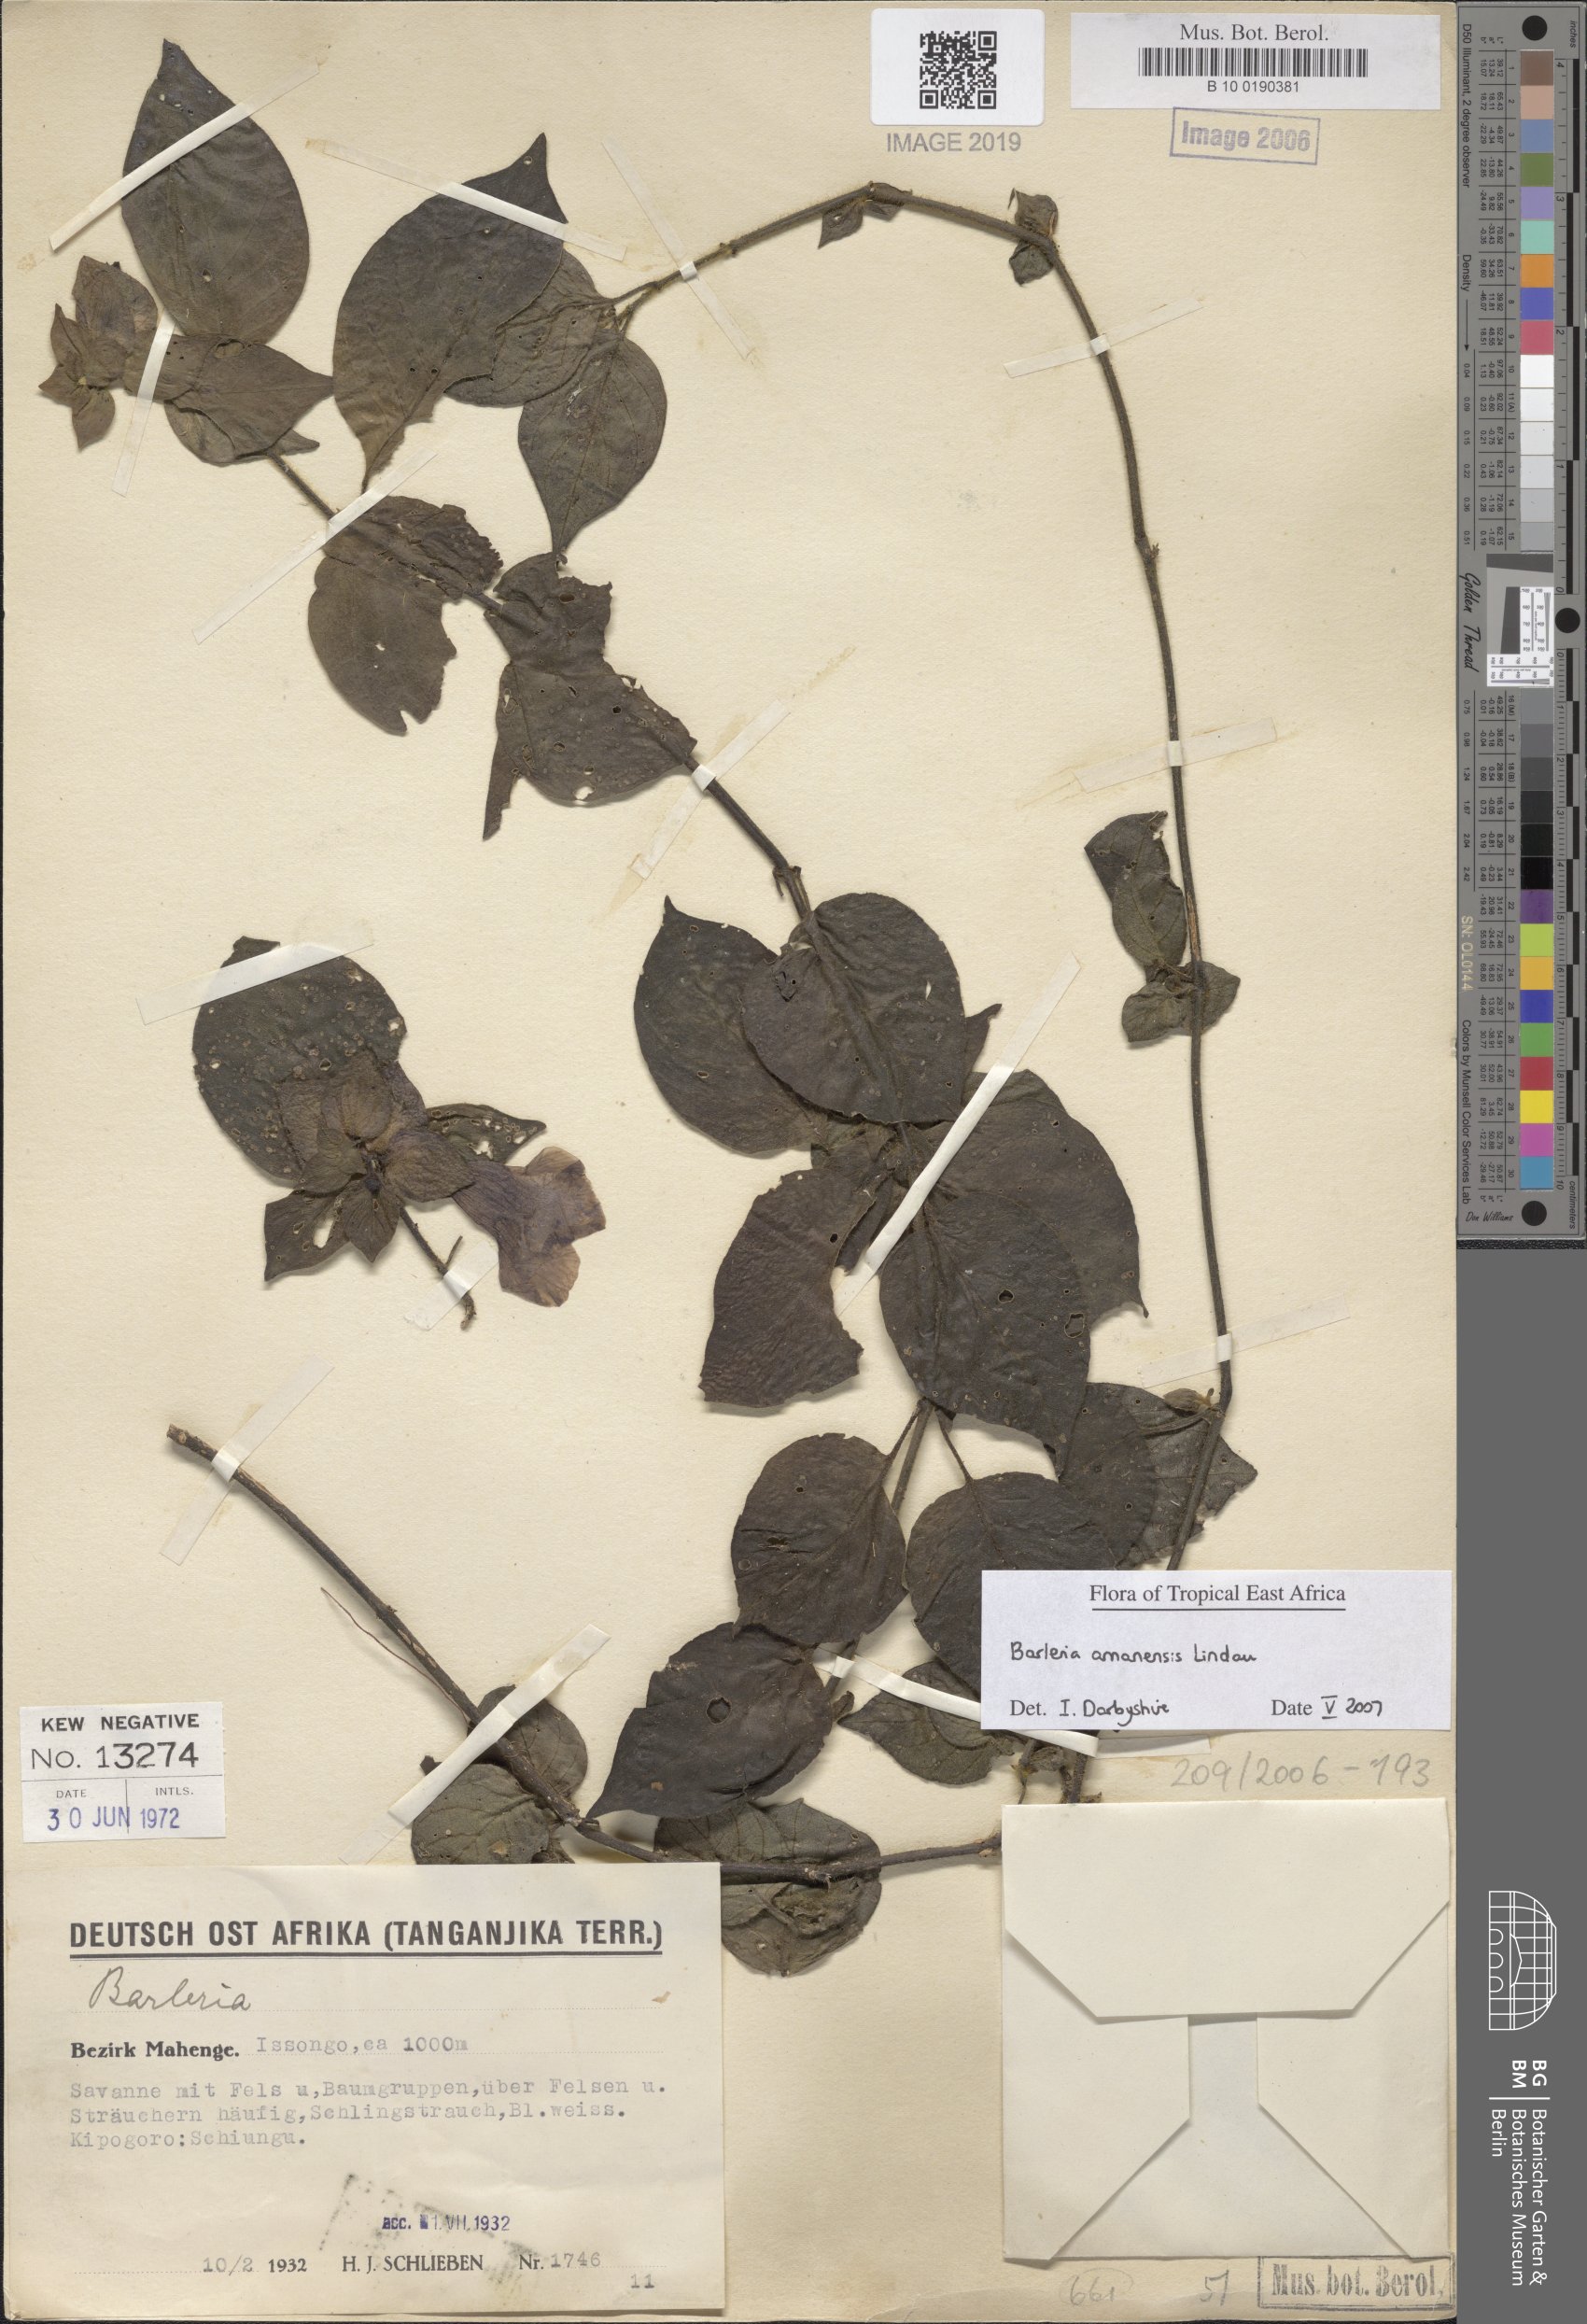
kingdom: Plantae
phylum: Tracheophyta
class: Magnoliopsida
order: Lamiales
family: Acanthaceae
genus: Barleria
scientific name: Barleria amanensis
